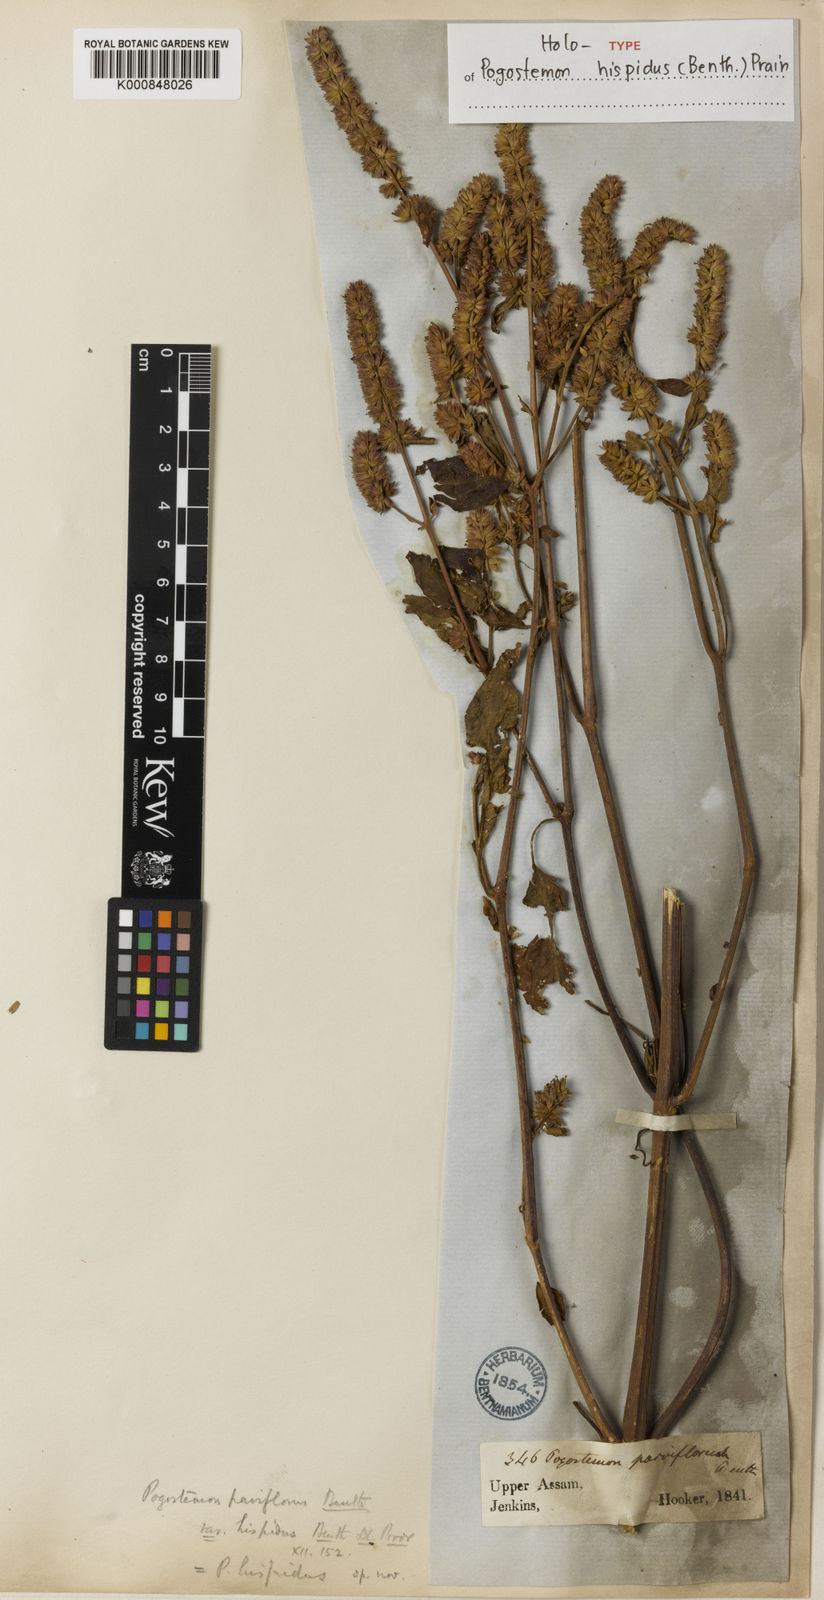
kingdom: Plantae
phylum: Tracheophyta
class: Magnoliopsida
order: Lamiales
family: Lamiaceae
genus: Pogostemon
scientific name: Pogostemon hispidus
